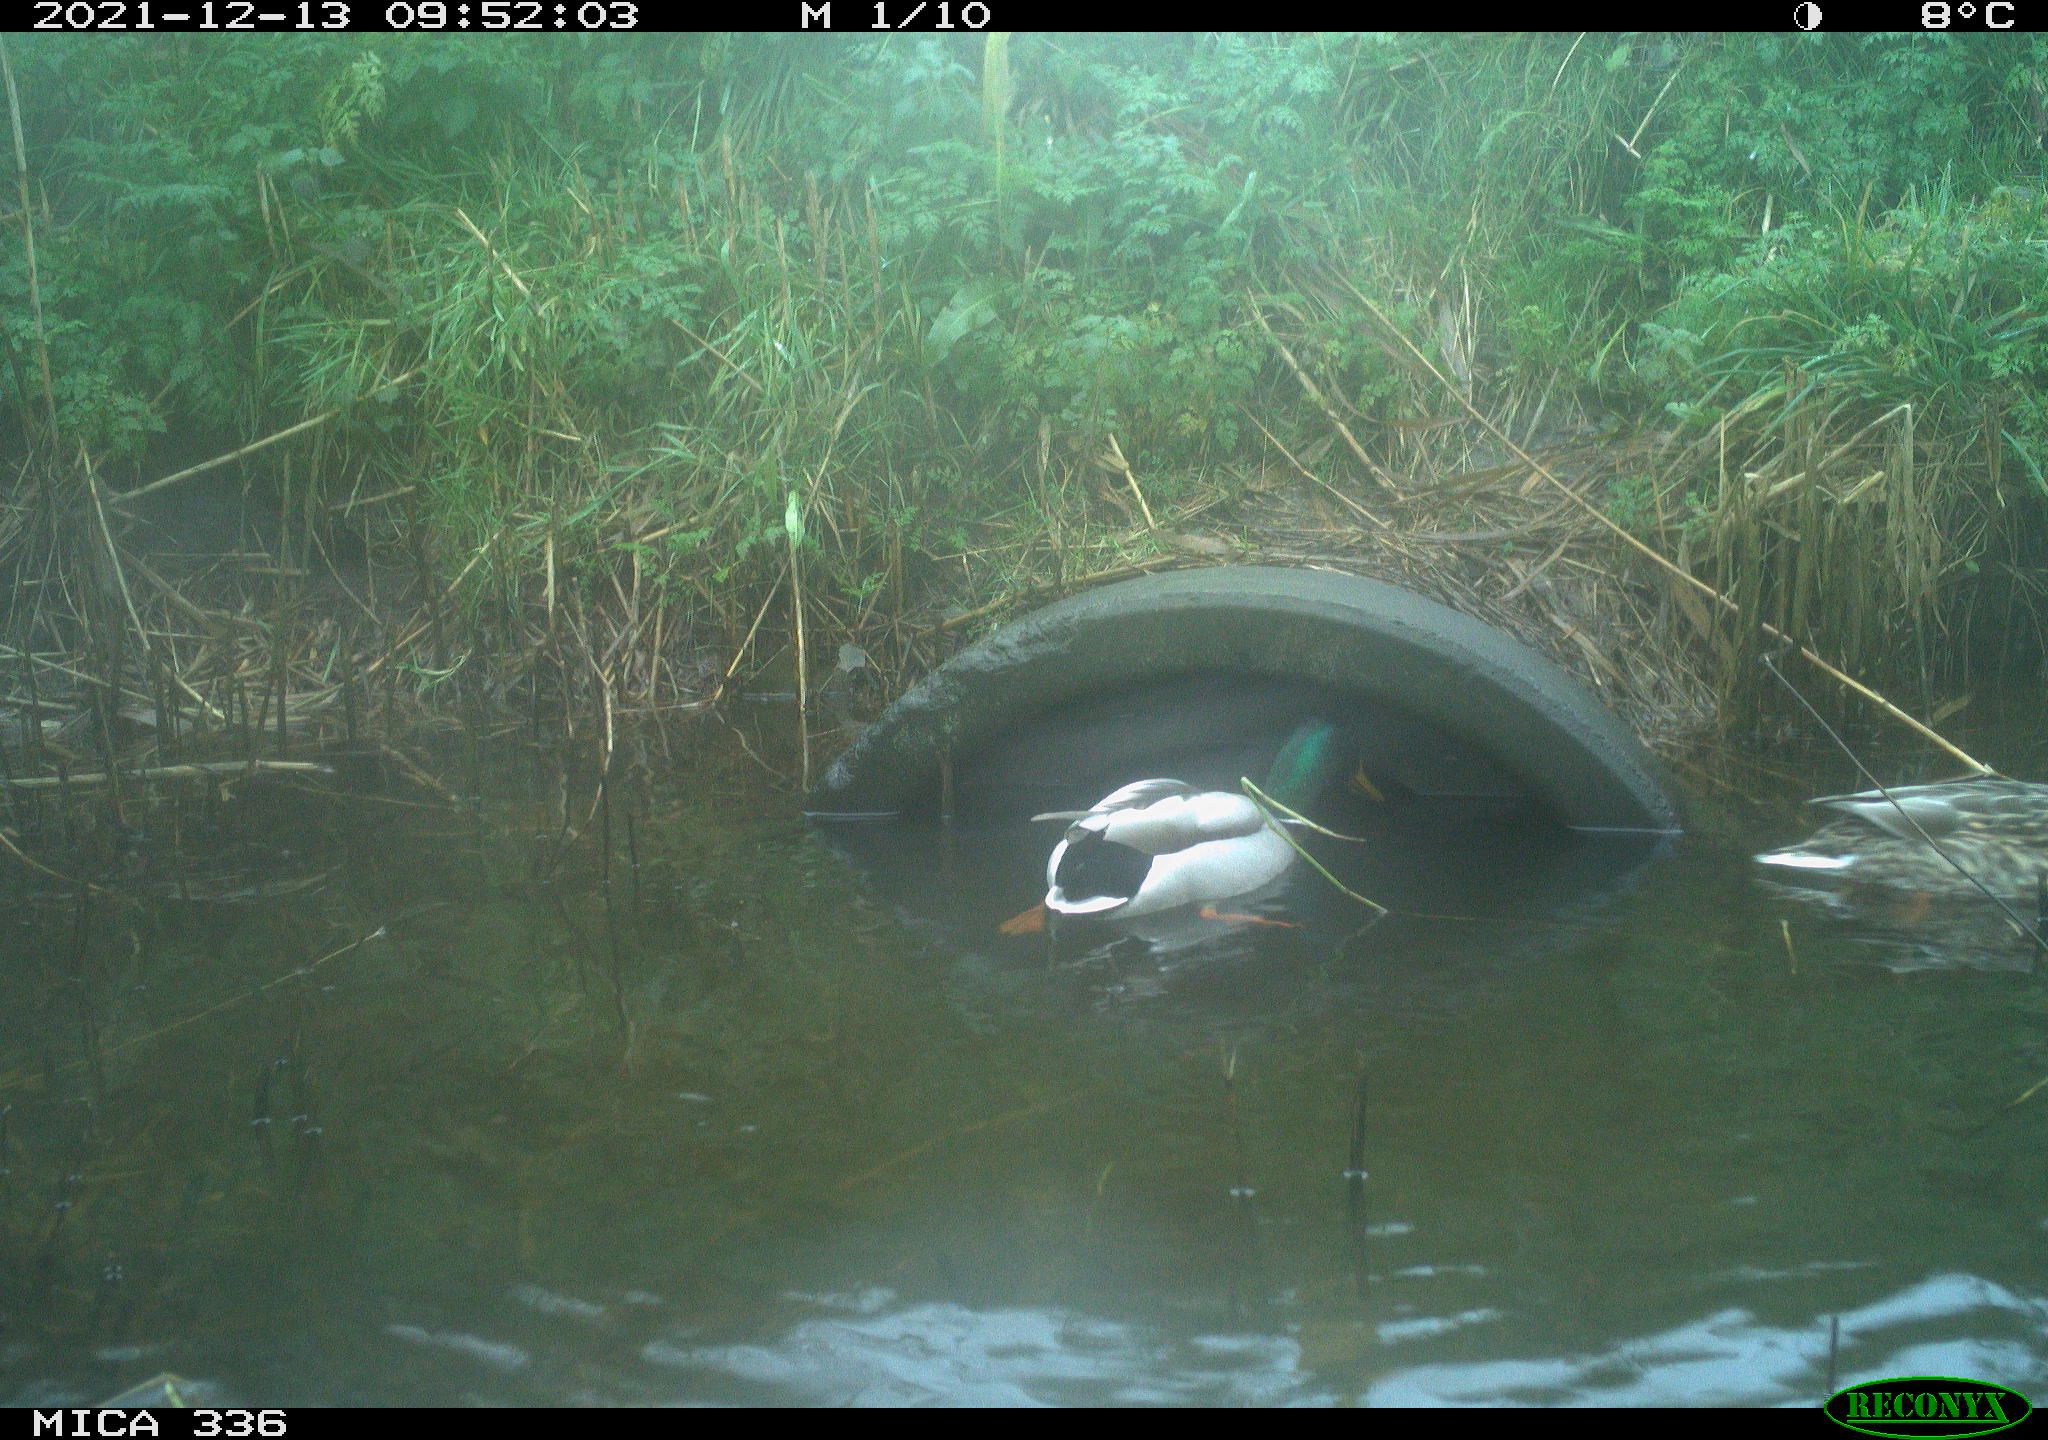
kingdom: Animalia
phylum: Chordata
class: Aves
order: Anseriformes
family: Anatidae
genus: Anas
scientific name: Anas platyrhynchos
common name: Mallard
